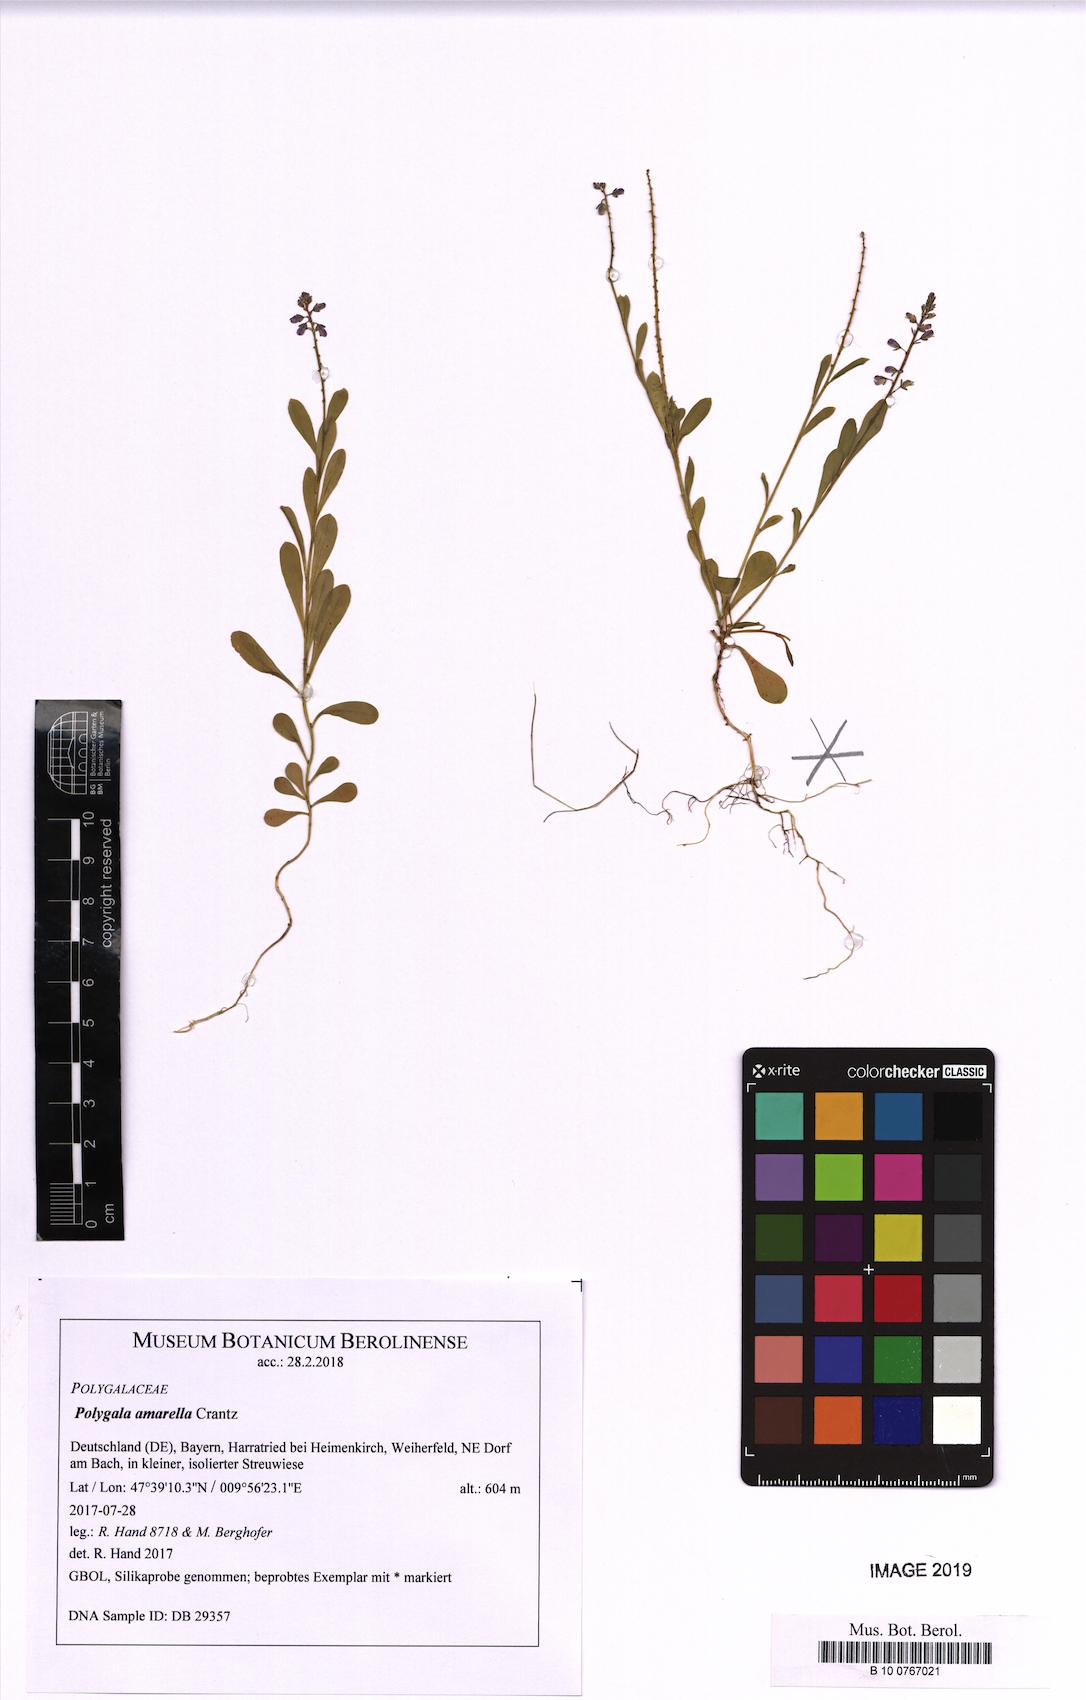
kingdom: Plantae
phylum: Tracheophyta
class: Magnoliopsida
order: Fabales
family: Polygalaceae
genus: Polygala
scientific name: Polygala amarella
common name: Dwarf milkwort
